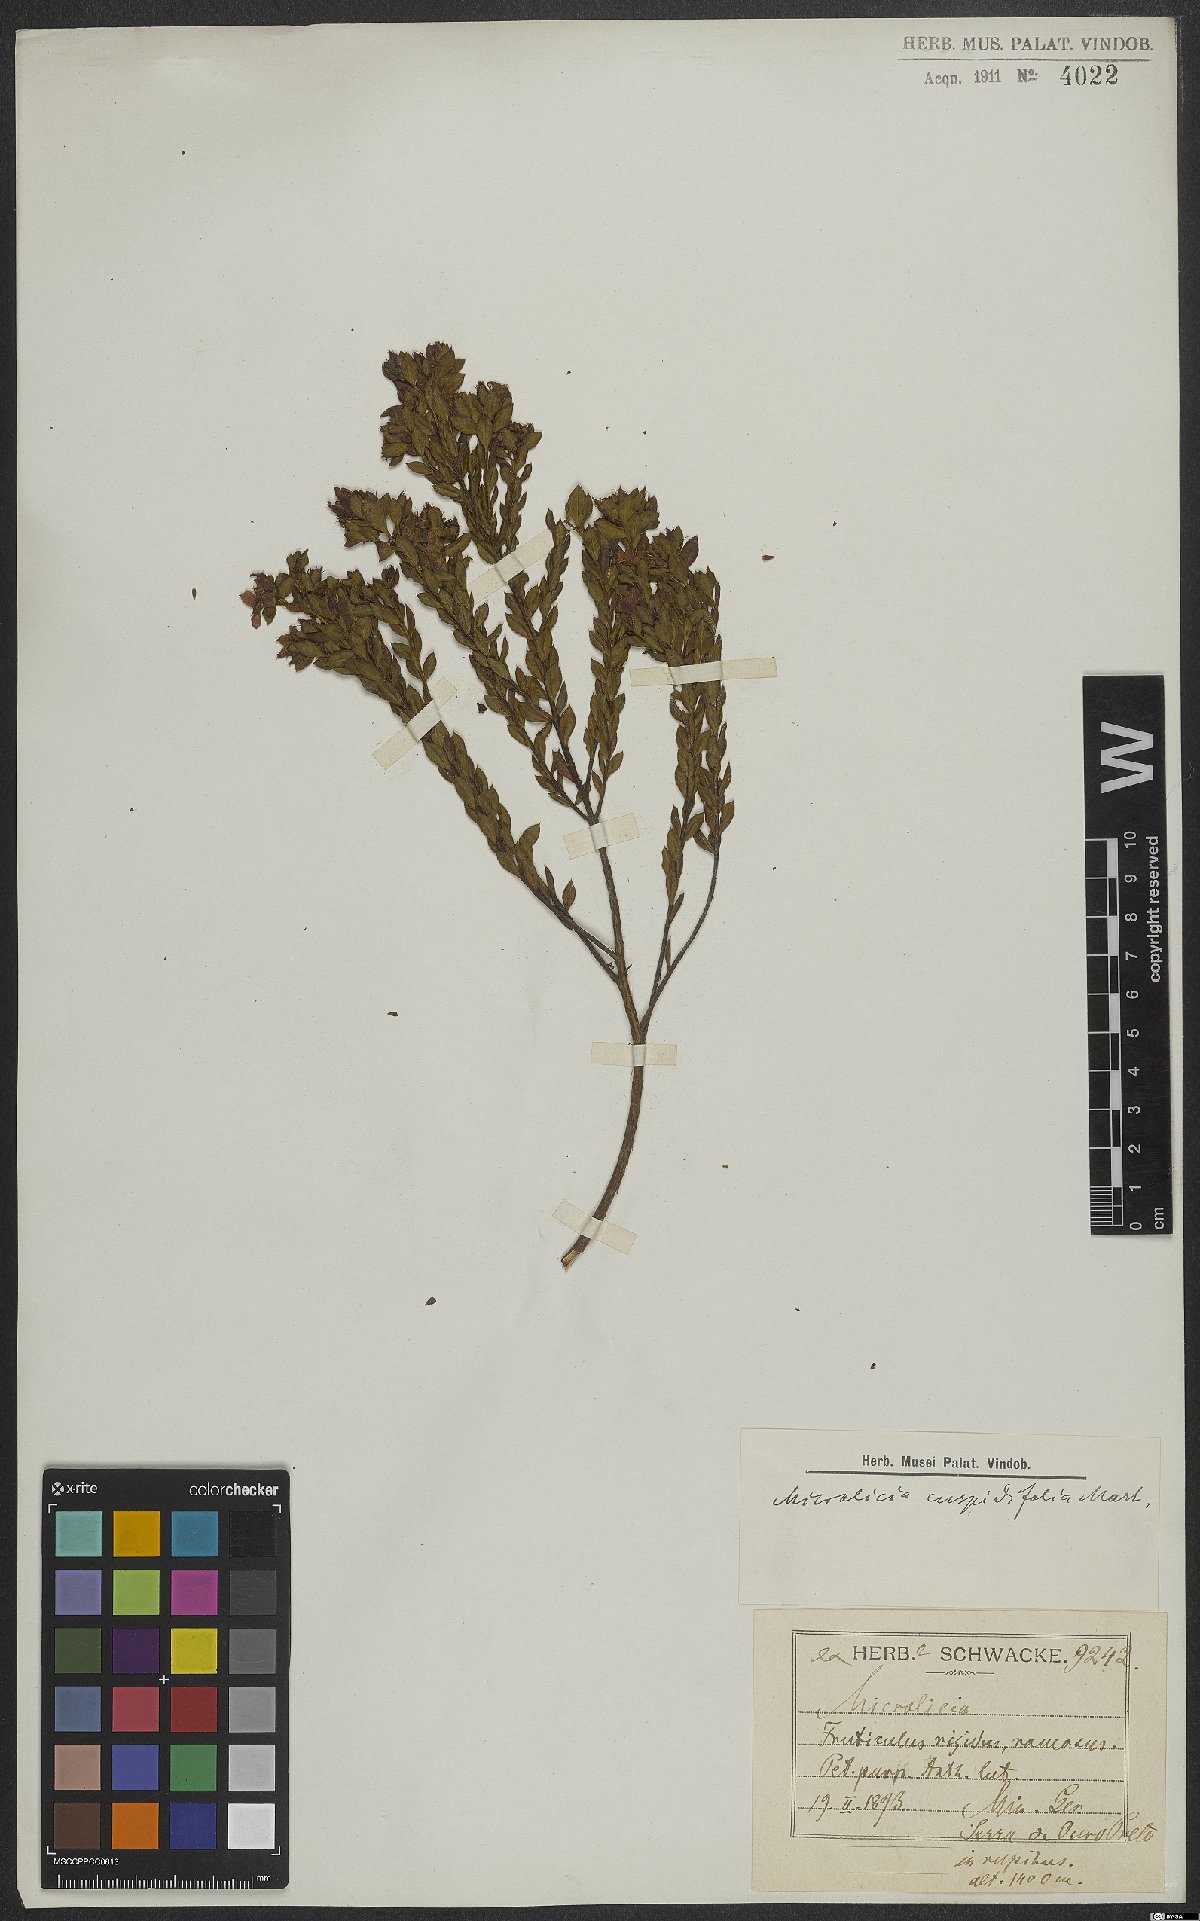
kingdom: Plantae
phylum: Tracheophyta
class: Magnoliopsida
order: Myrtales
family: Melastomataceae
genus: Microlicia
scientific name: Microlicia cuspidifolia
